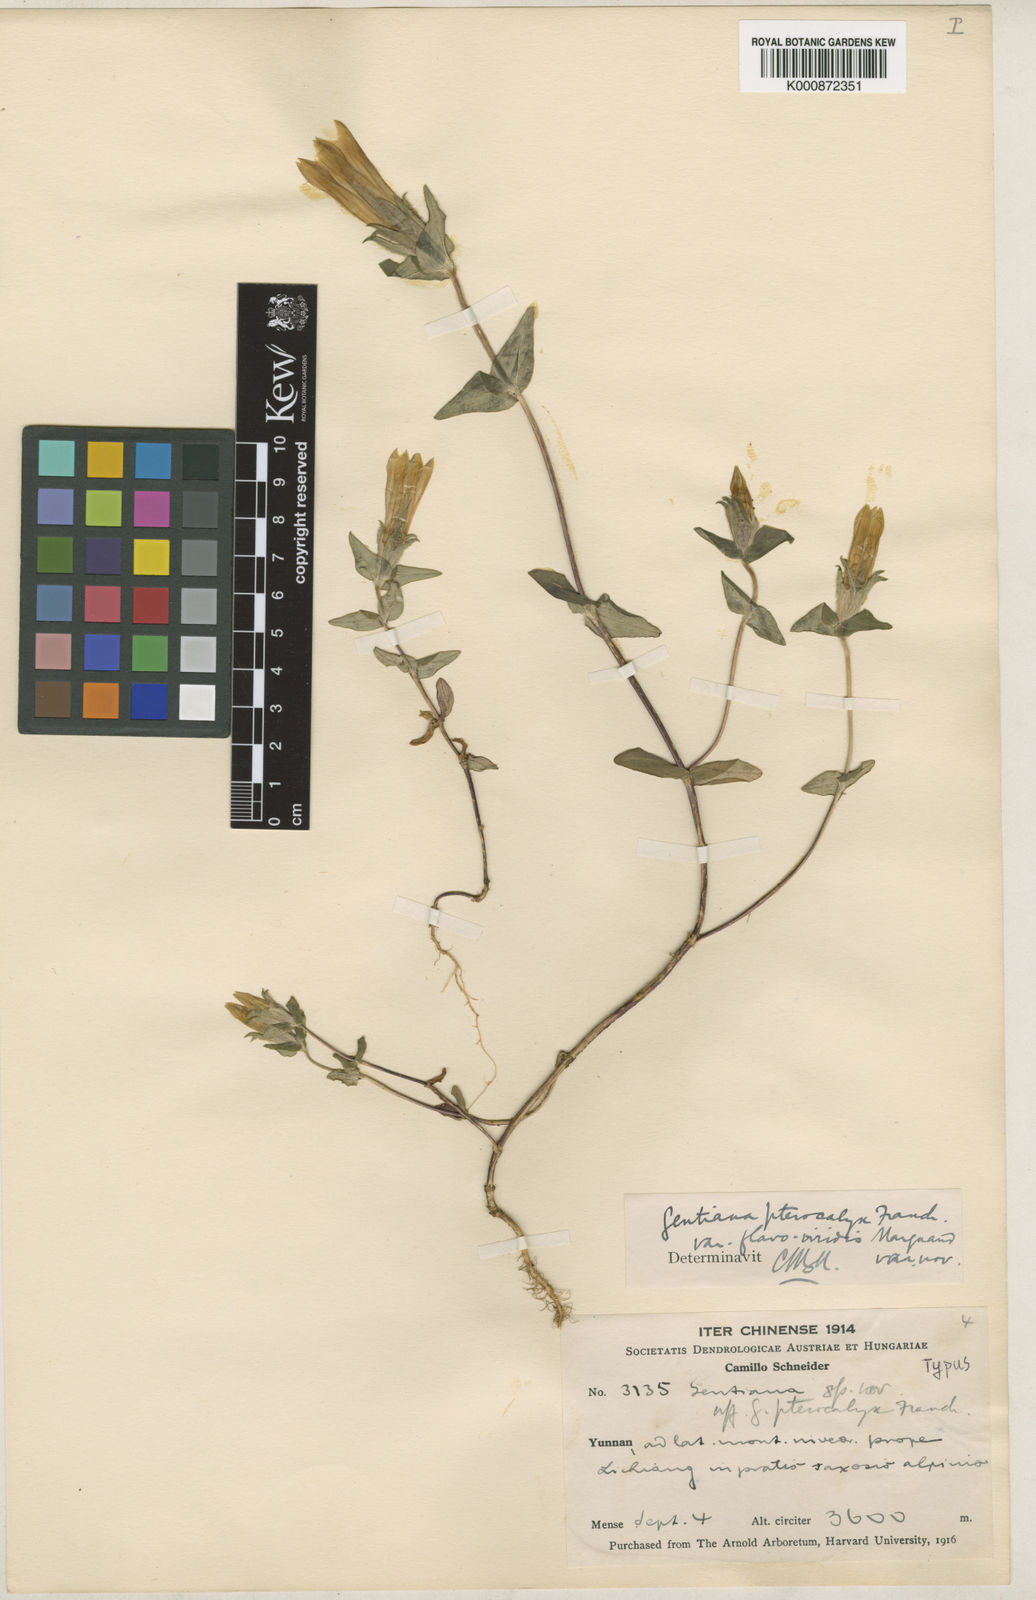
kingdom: Plantae
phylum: Tracheophyta
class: Magnoliopsida
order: Gentianales
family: Gentianaceae
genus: Sinogentiana
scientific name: Sinogentiana souliei
